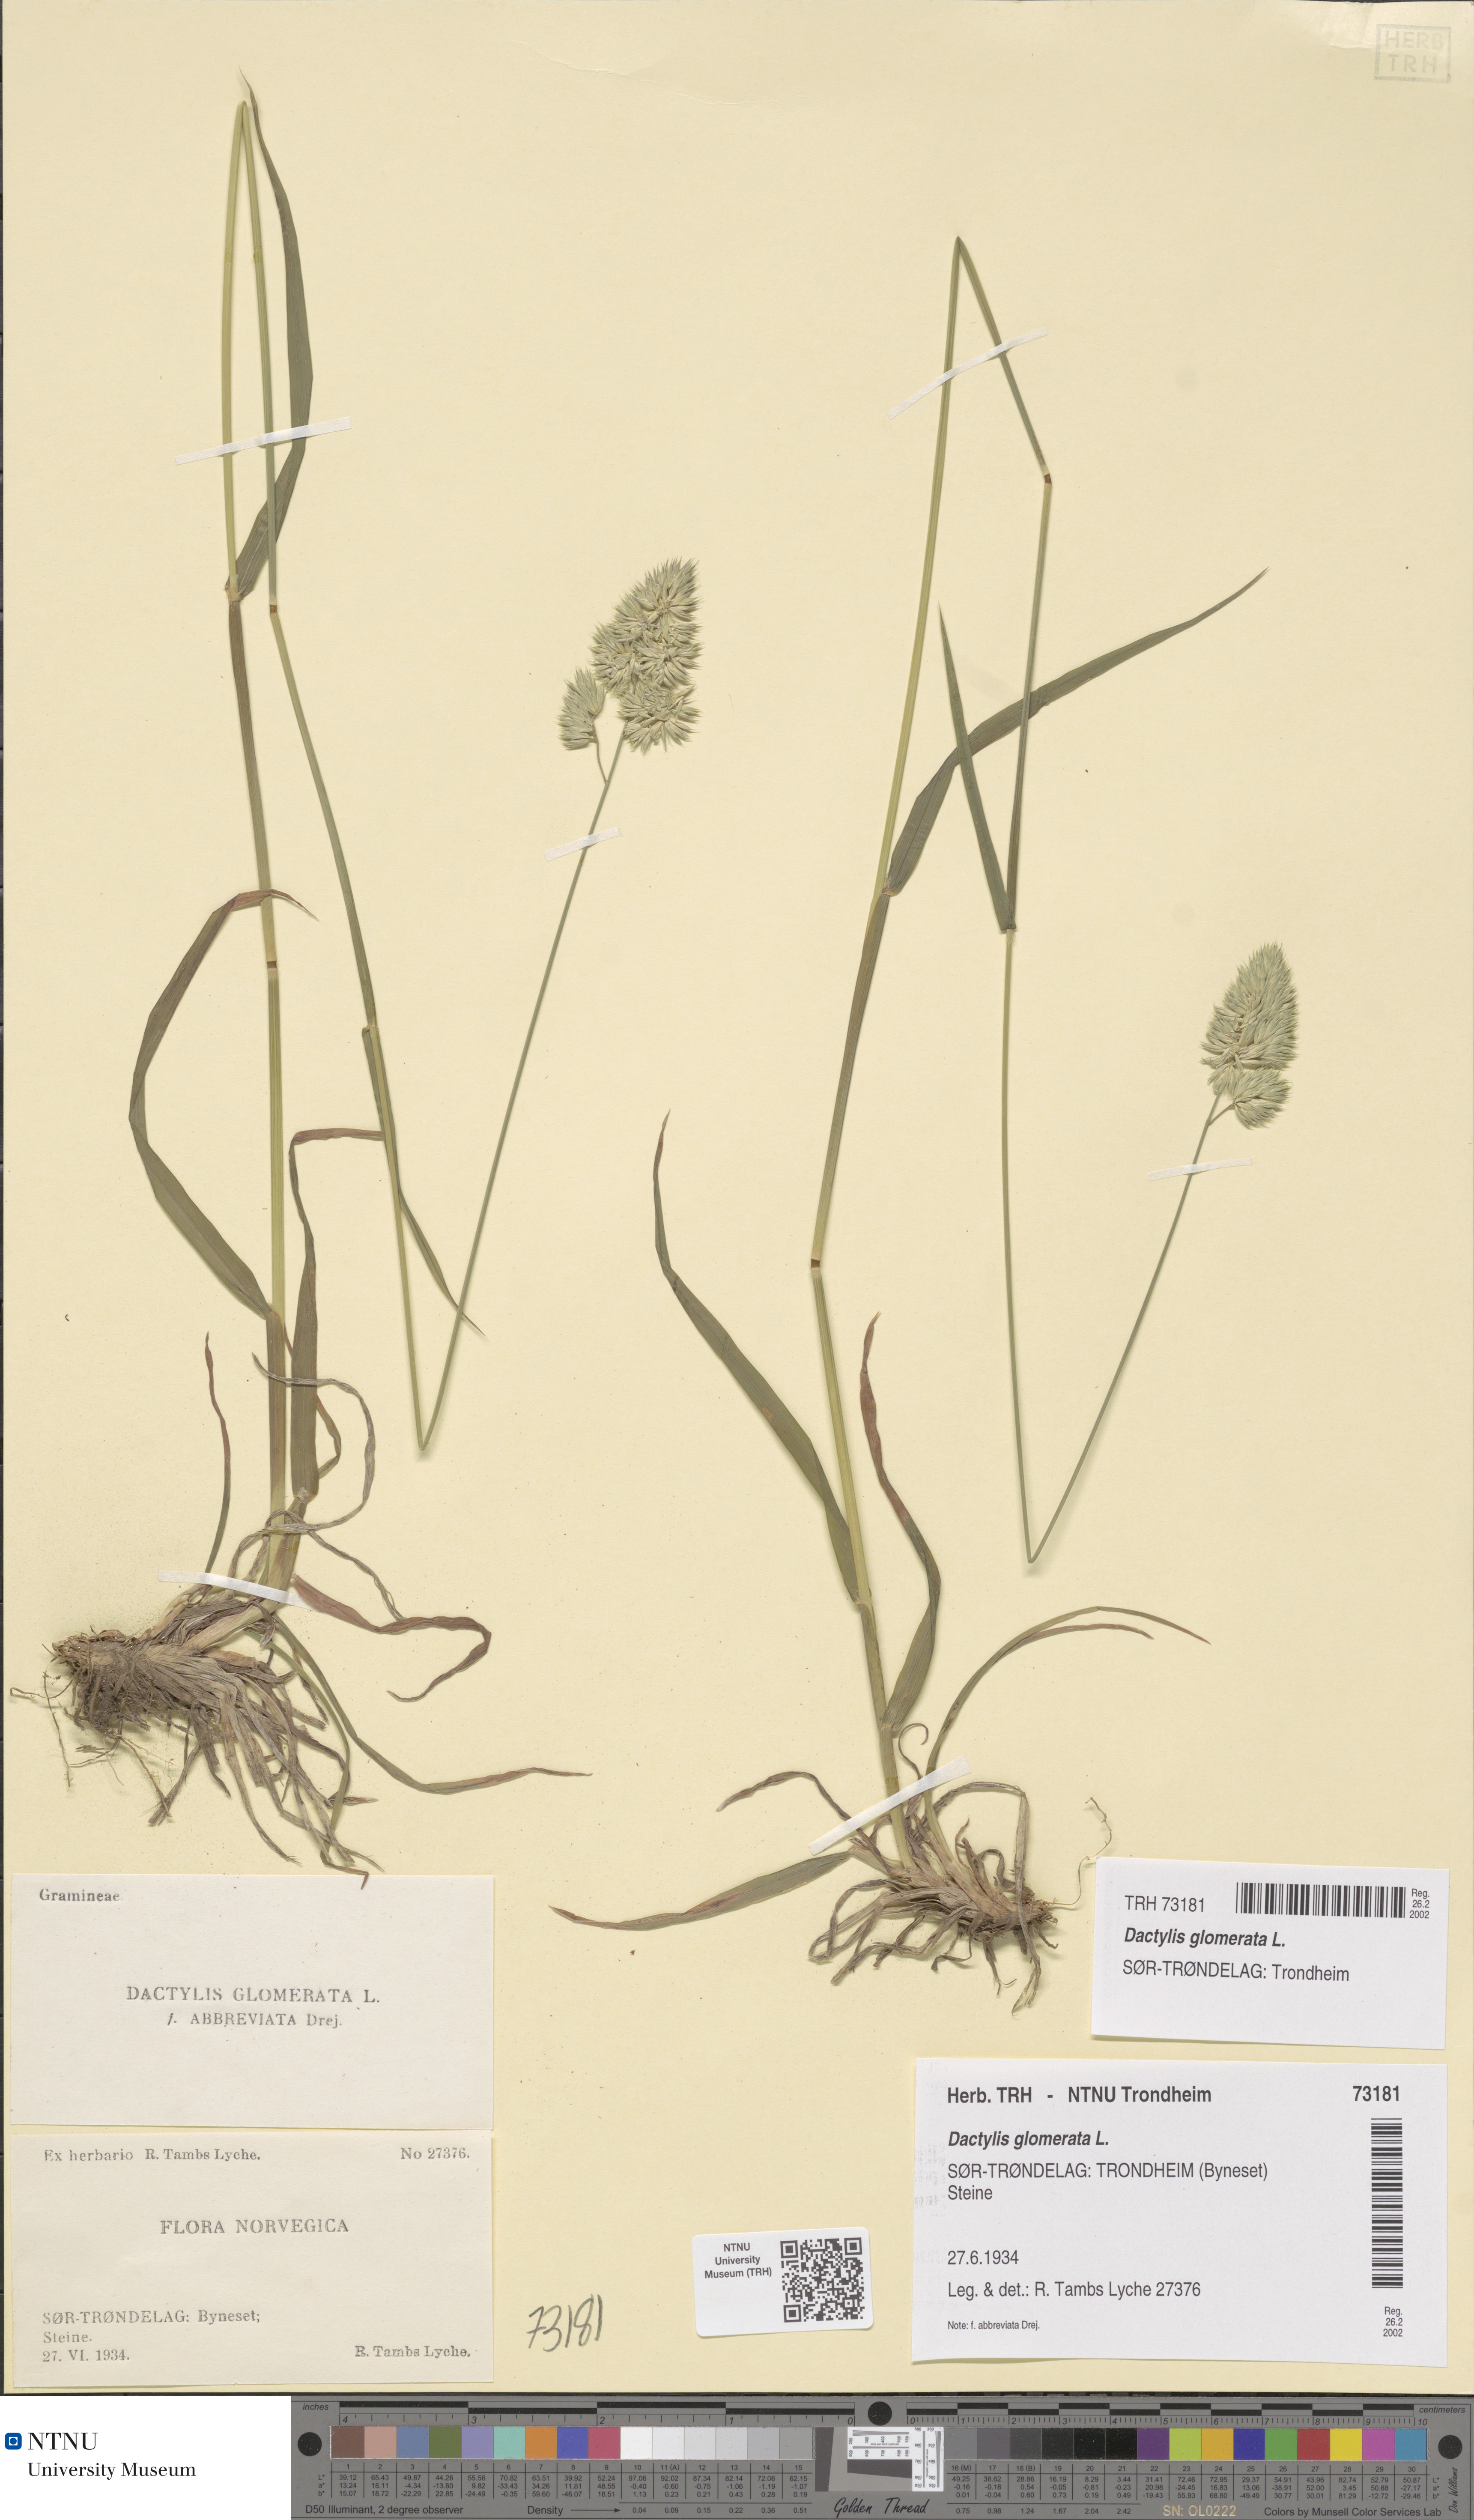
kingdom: Plantae
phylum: Tracheophyta
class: Liliopsida
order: Poales
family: Poaceae
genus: Dactylis
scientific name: Dactylis glomerata
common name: Orchardgrass
